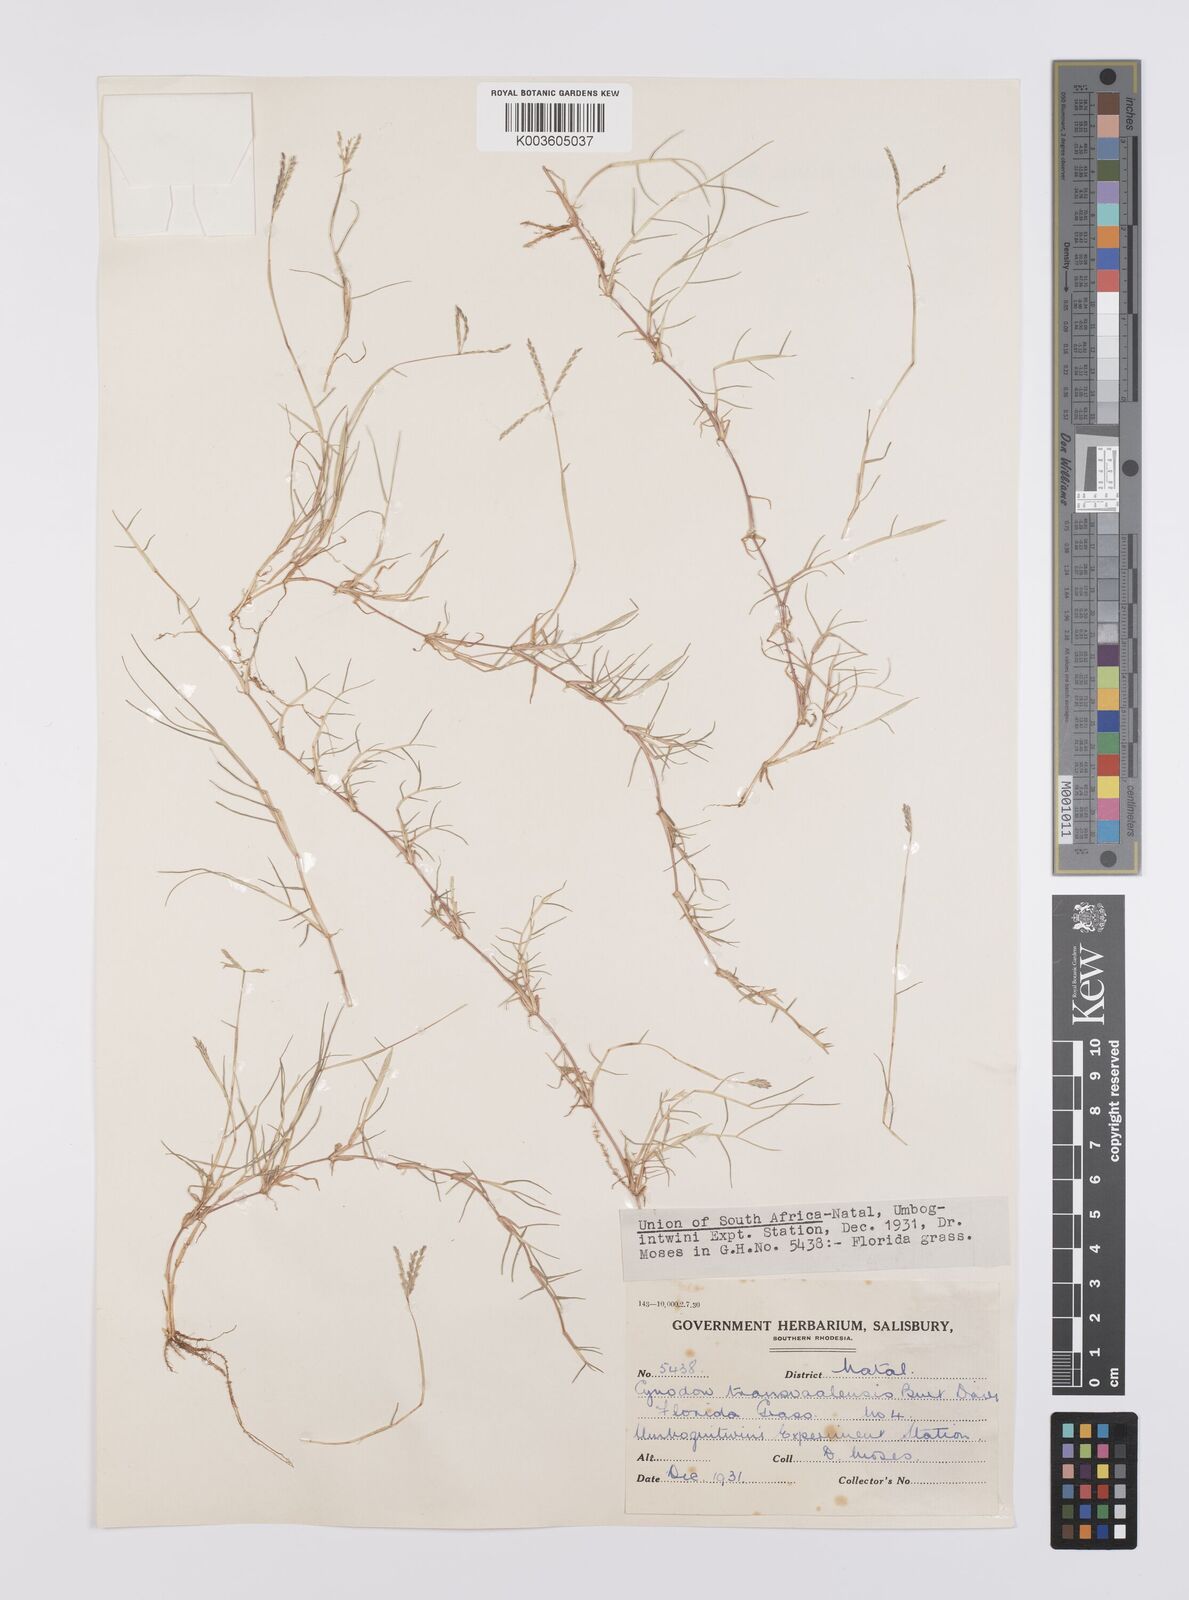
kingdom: Plantae
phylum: Tracheophyta
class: Liliopsida
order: Poales
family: Poaceae
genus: Cynodon
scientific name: Cynodon transvaalensis
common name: African bermuda grass
